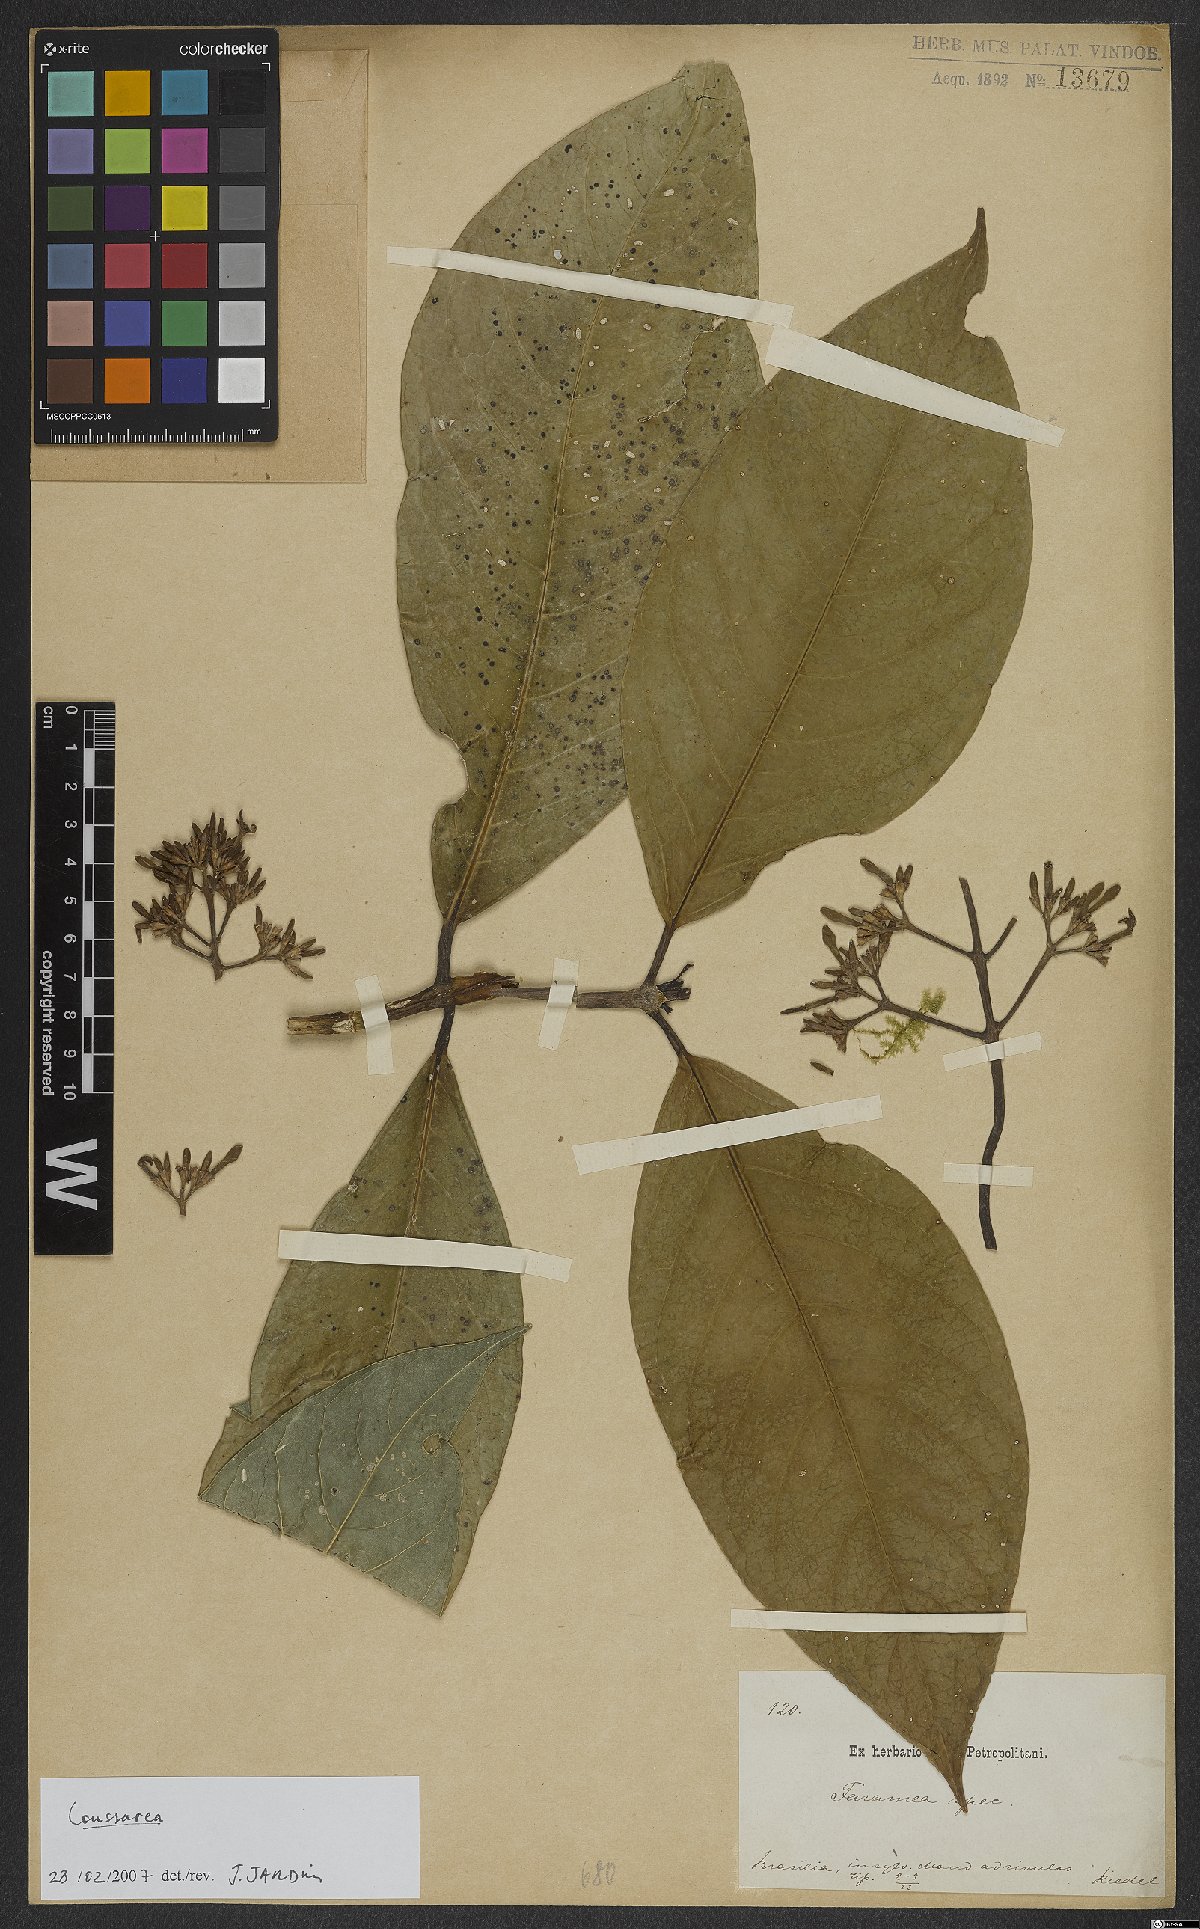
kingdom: Plantae
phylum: Tracheophyta
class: Magnoliopsida
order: Gentianales
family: Rubiaceae
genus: Coussarea
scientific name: Coussarea
